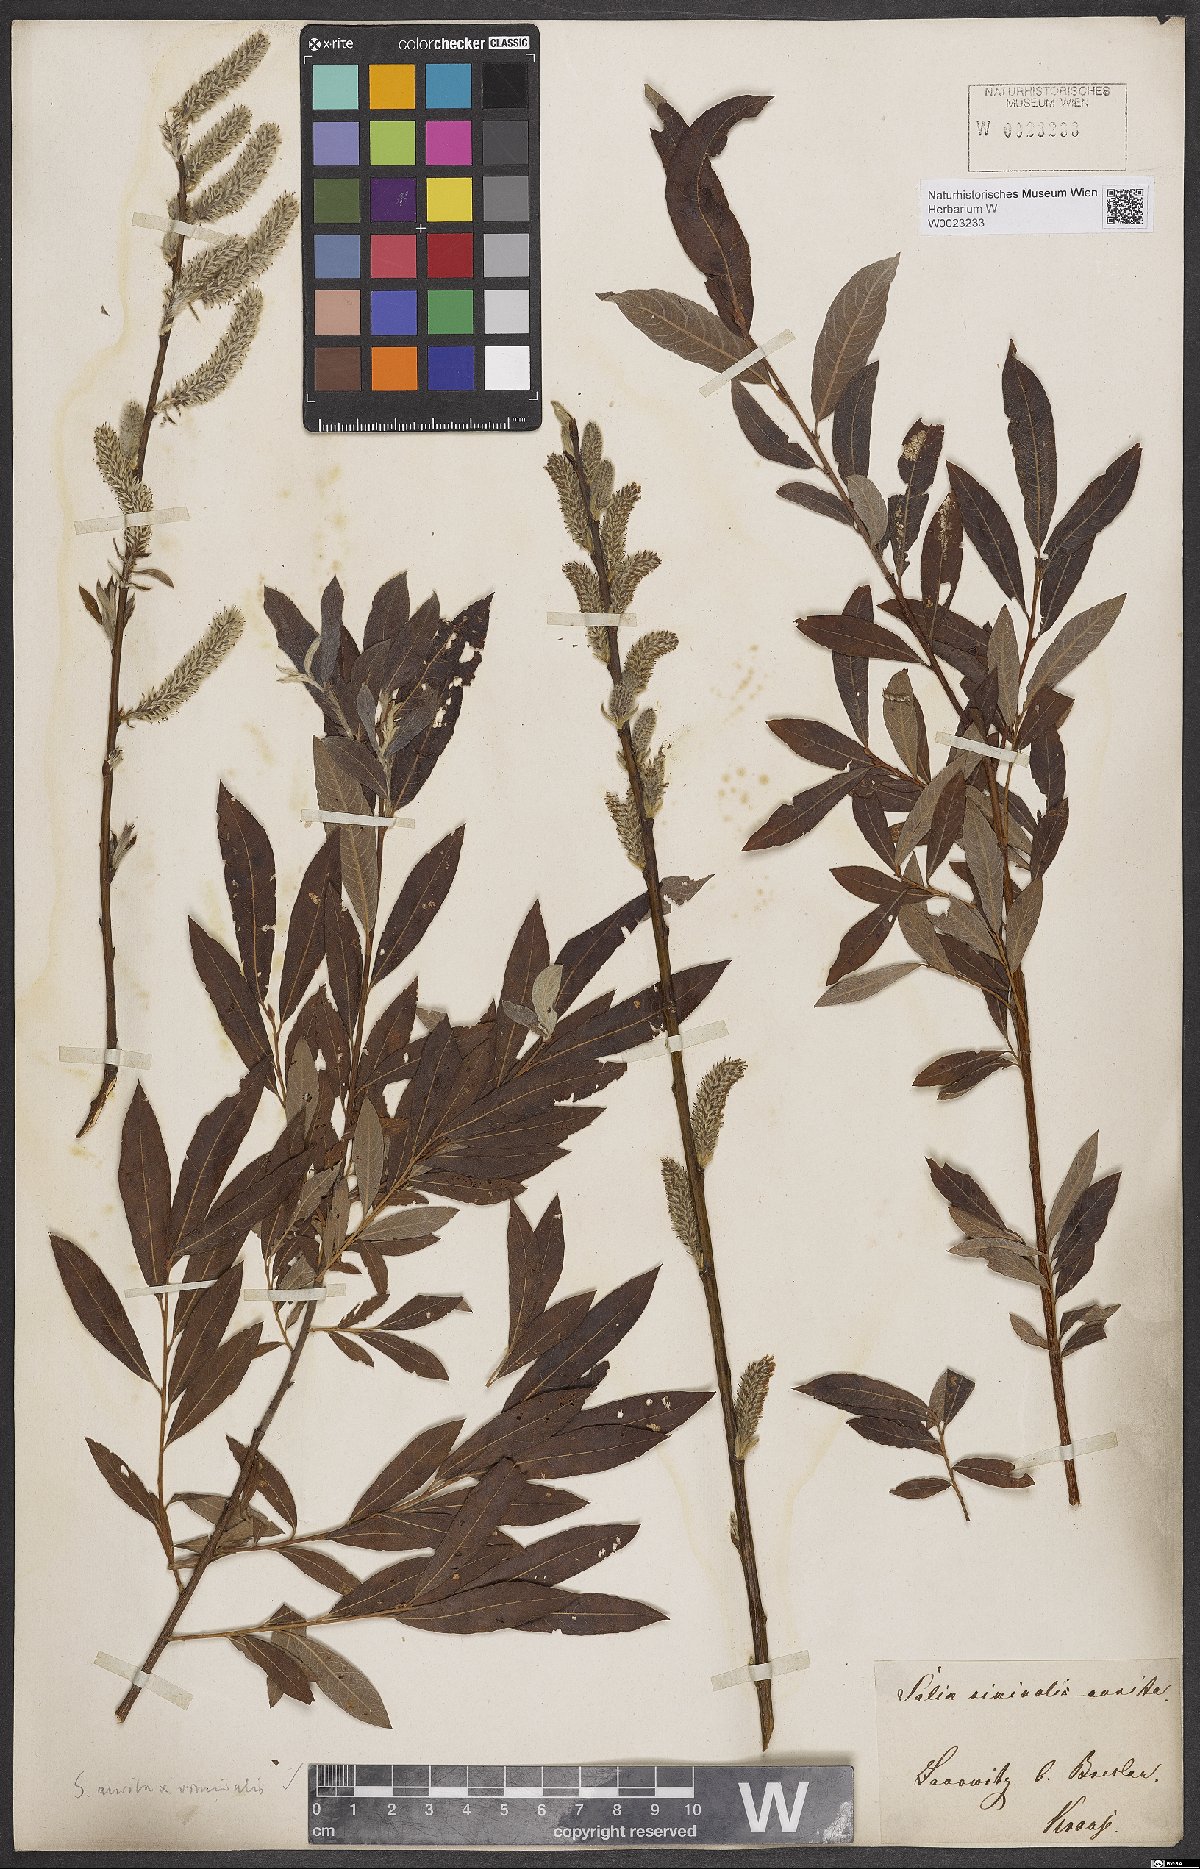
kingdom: Plantae
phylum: Tracheophyta
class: Magnoliopsida
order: Malpighiales
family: Salicaceae
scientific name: Salicaceae
